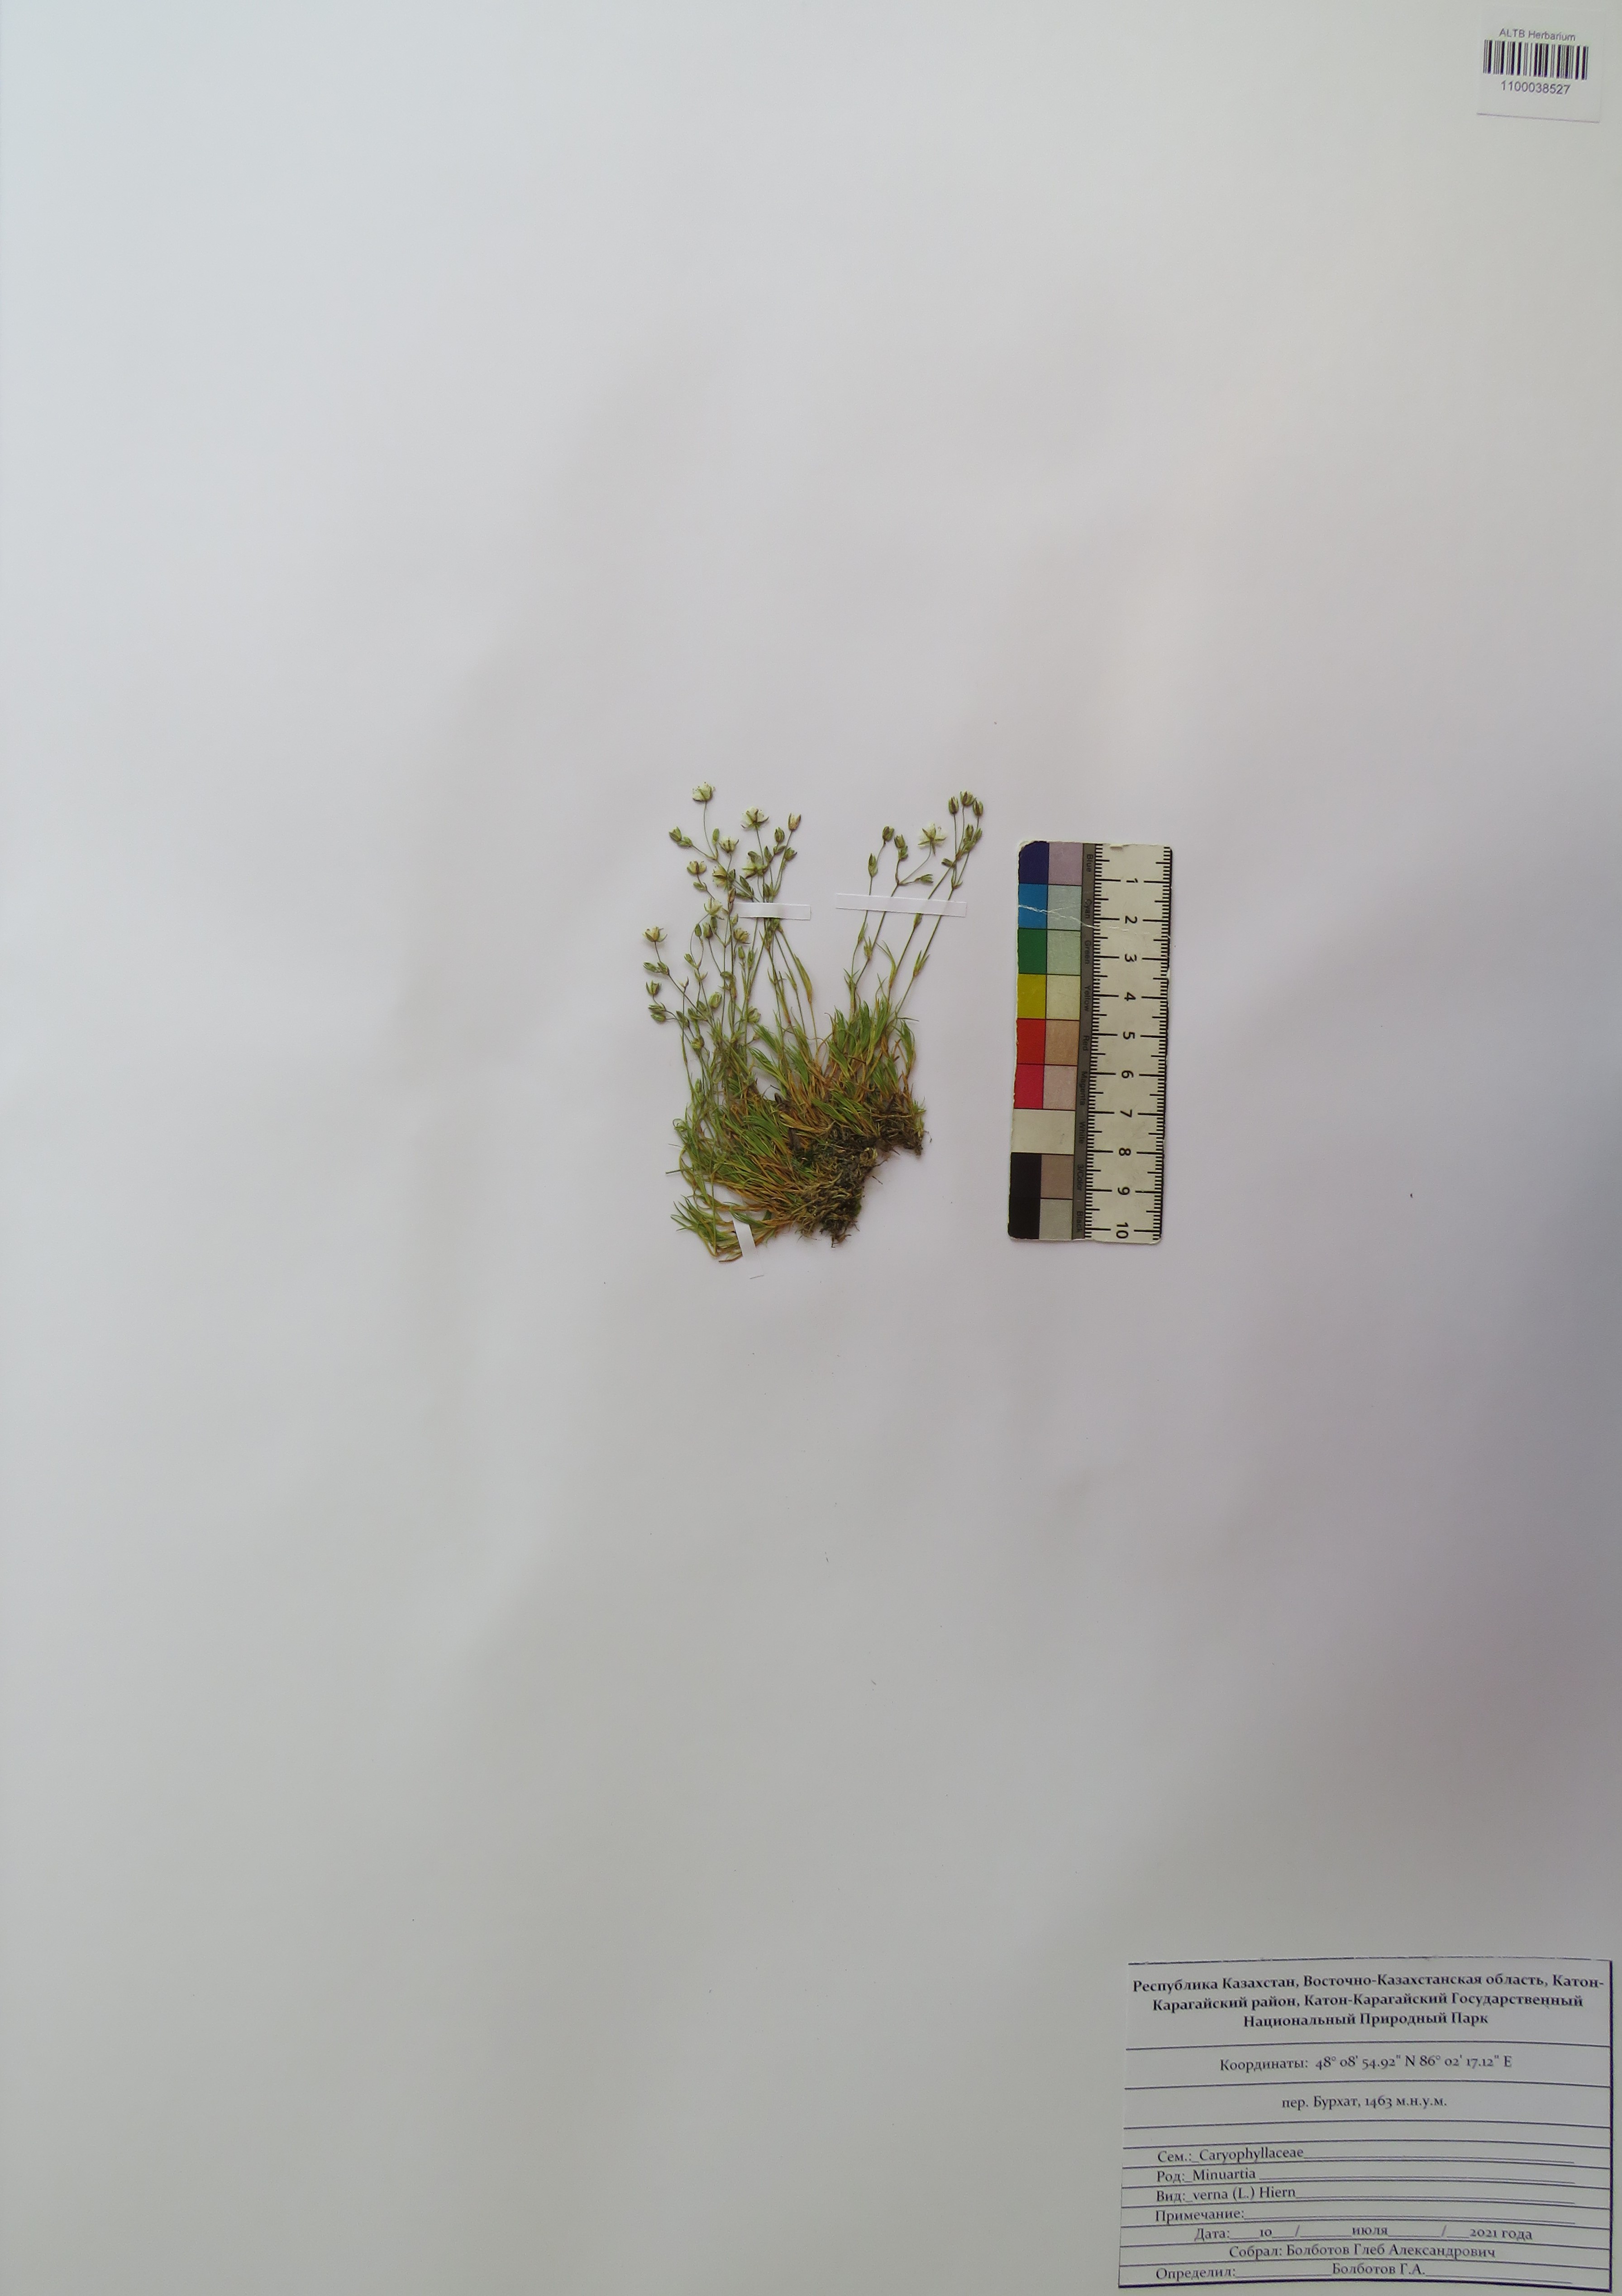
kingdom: Plantae
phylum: Tracheophyta
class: Magnoliopsida
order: Caryophyllales
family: Caryophyllaceae
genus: Sabulina
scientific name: Sabulina verna
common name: Spring sandwort
